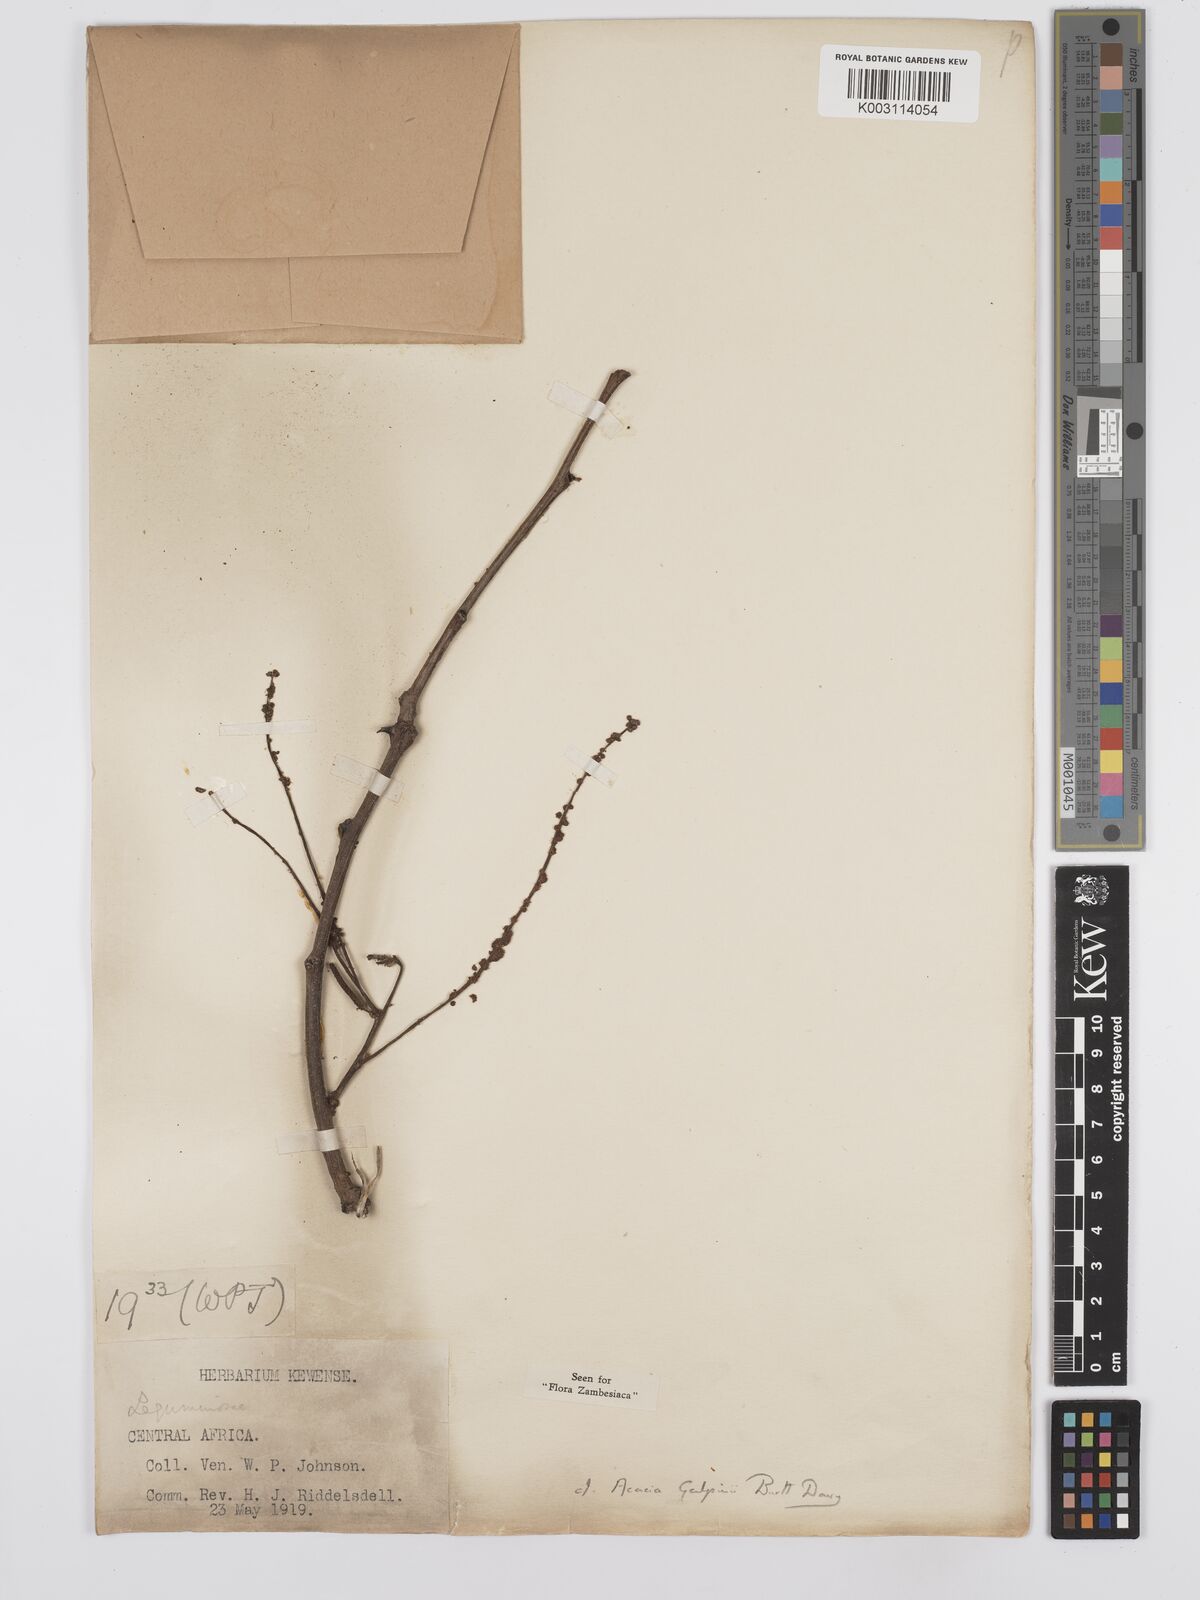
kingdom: Plantae
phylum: Tracheophyta
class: Magnoliopsida
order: Fabales
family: Fabaceae
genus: Senegalia
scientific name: Senegalia galpinii
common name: Monkey-thorn
